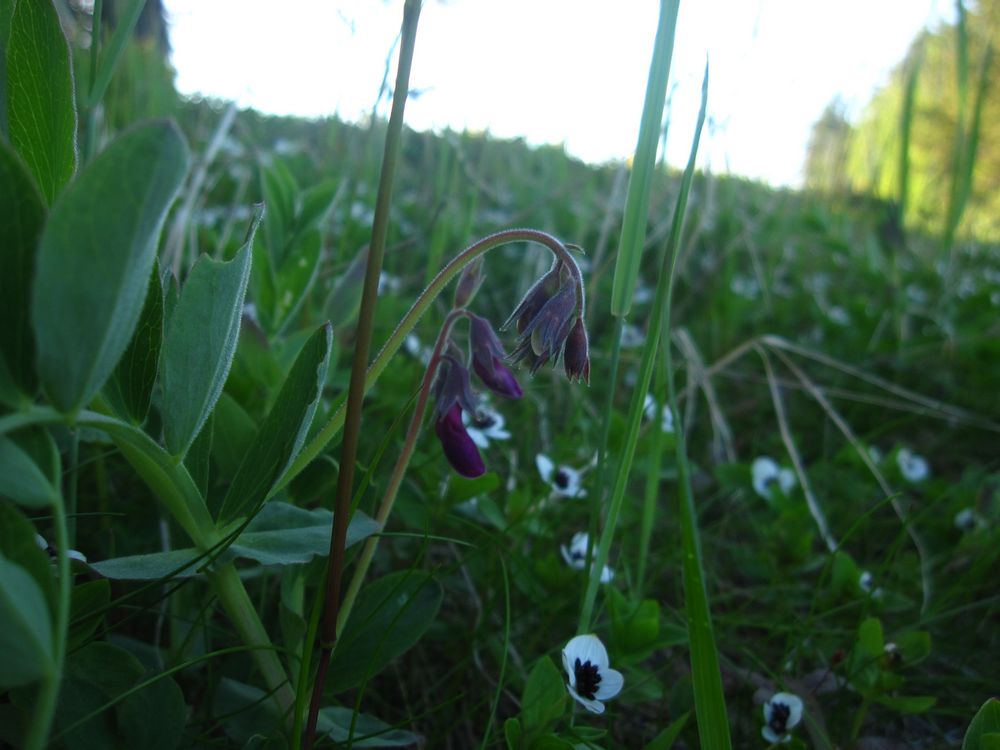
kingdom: Plantae
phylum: Tracheophyta
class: Magnoliopsida
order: Fabales
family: Fabaceae
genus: Lathyrus
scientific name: Lathyrus japonicus
